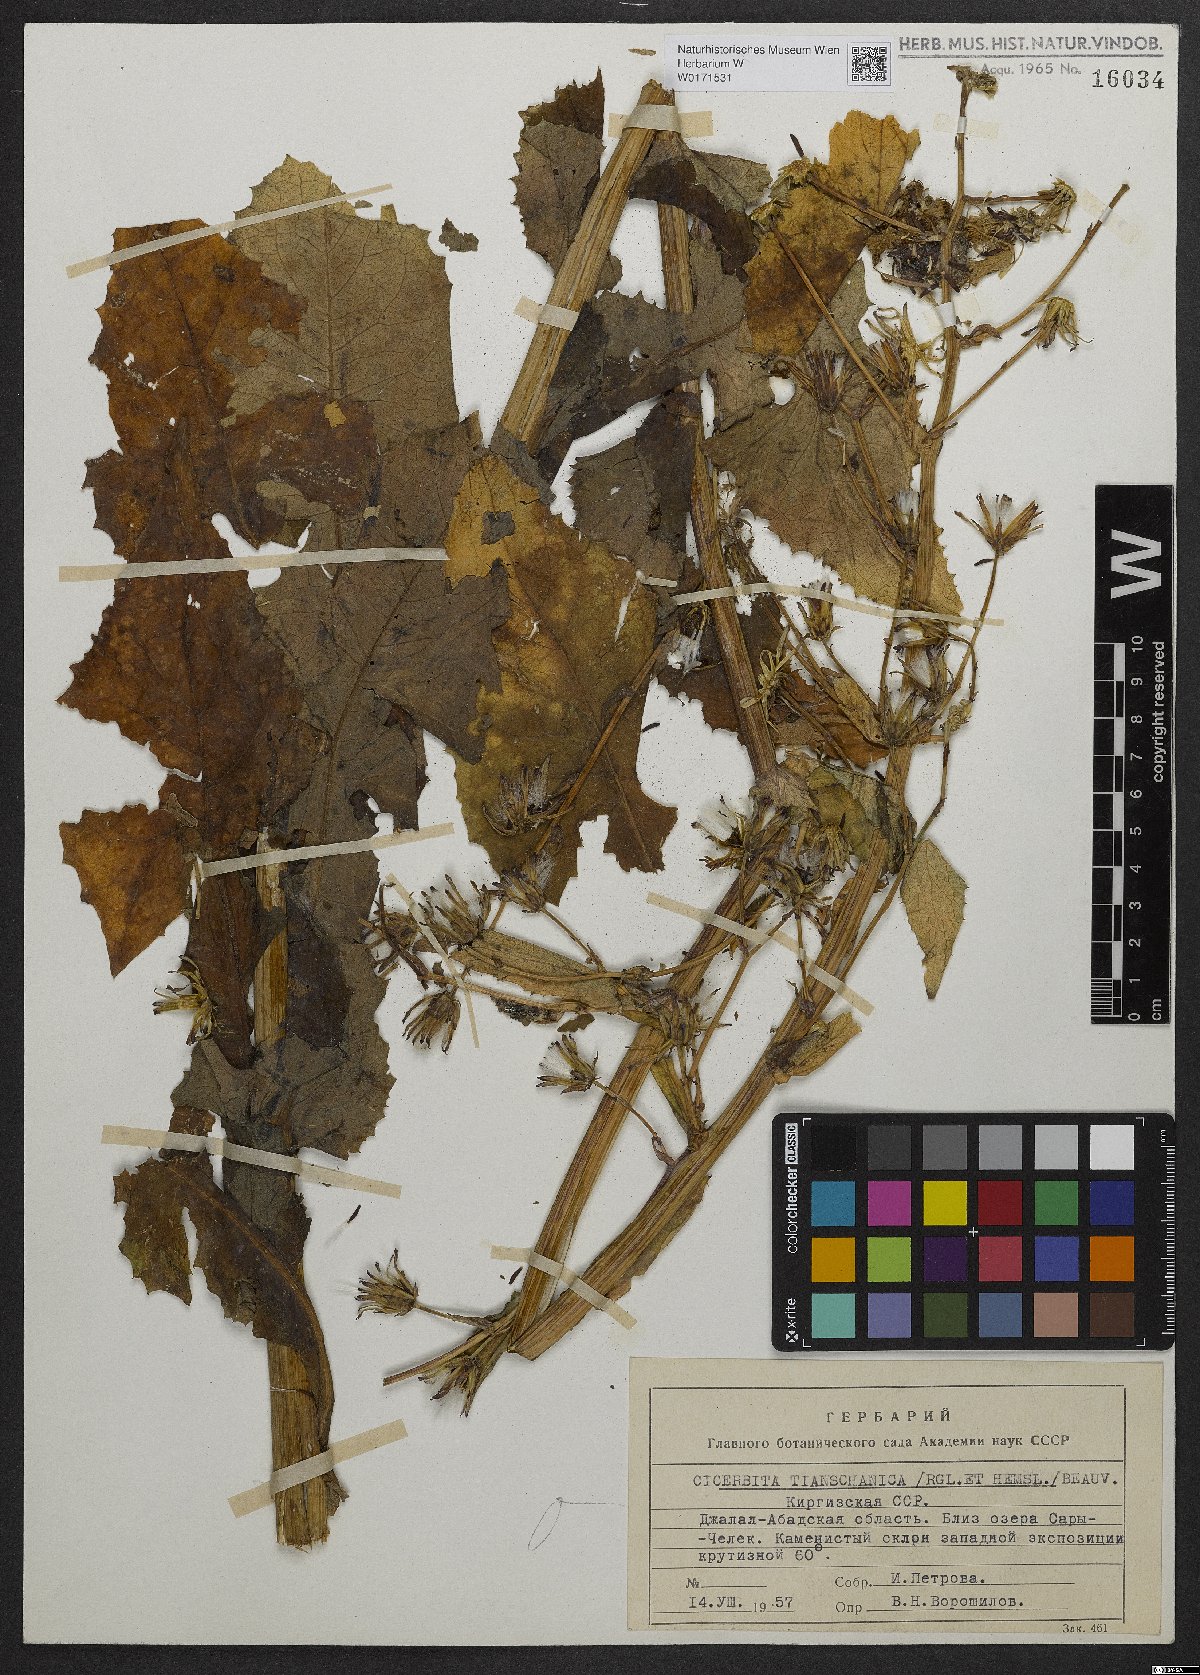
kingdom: Plantae
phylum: Tracheophyta
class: Magnoliopsida
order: Asterales
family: Asteraceae
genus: Cicerbita
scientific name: Cicerbita thianschanica
